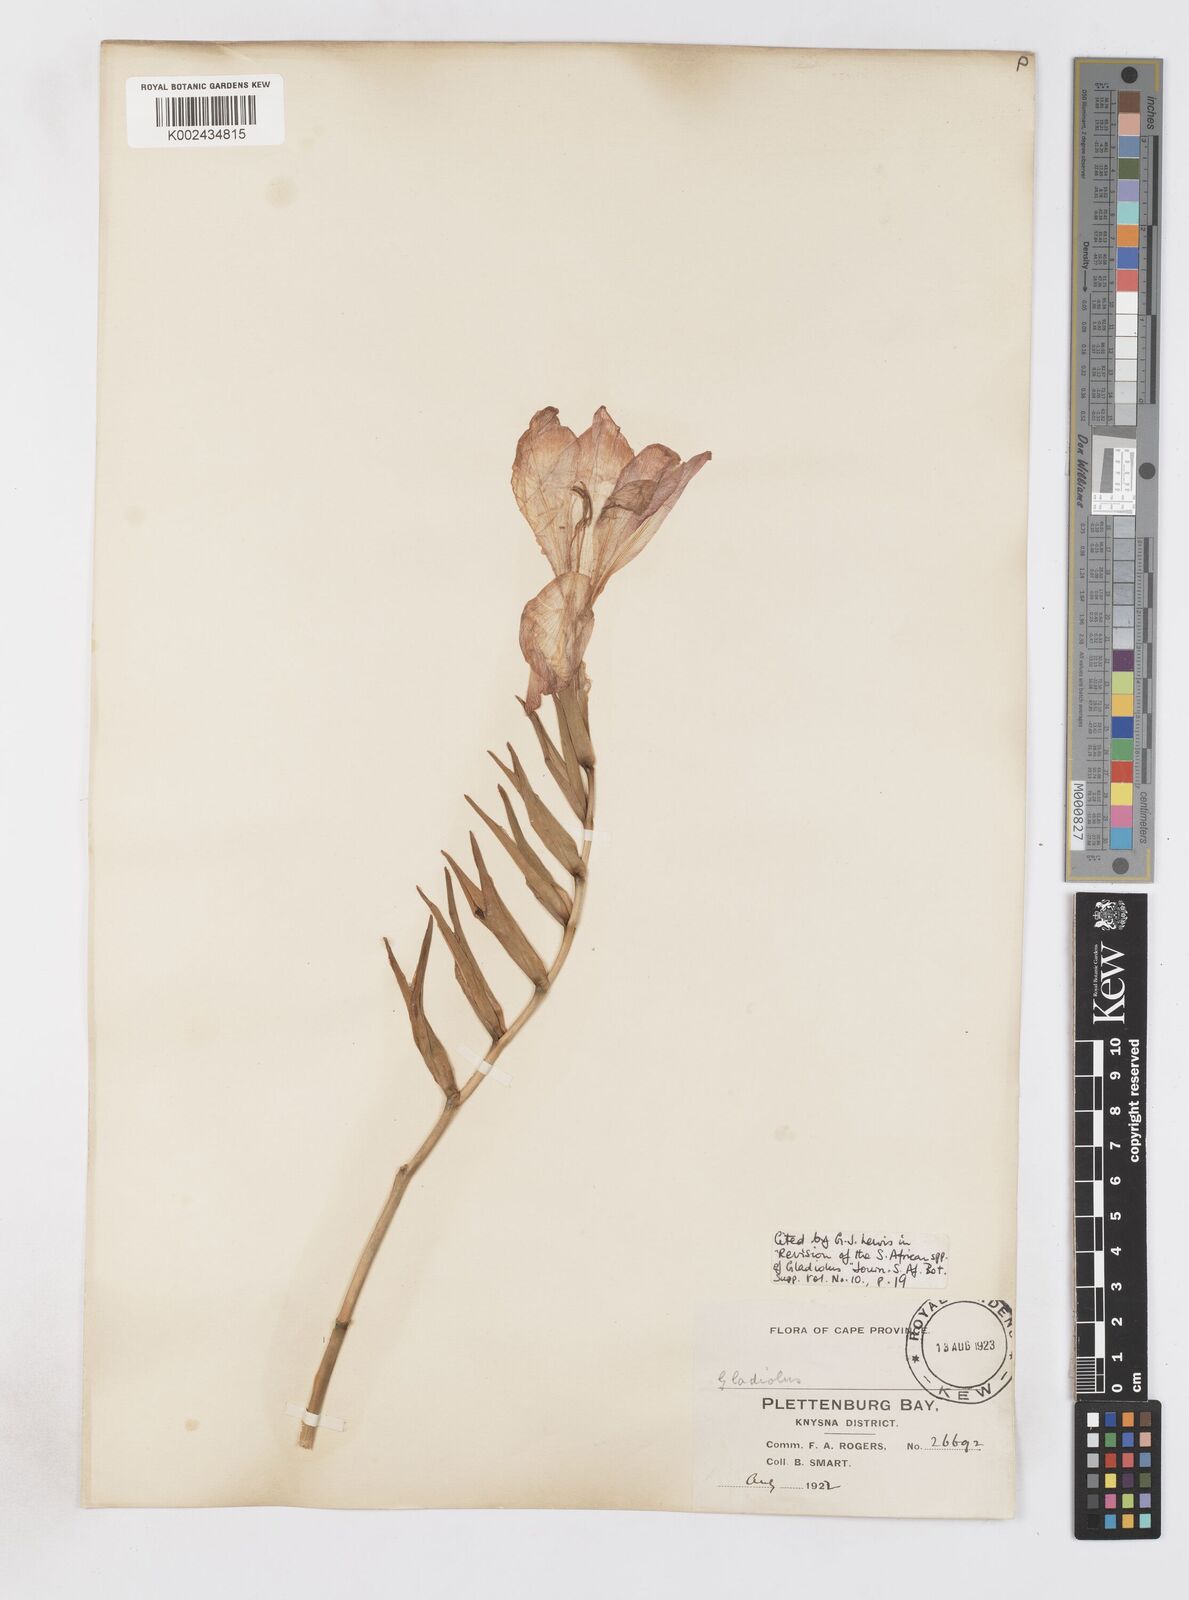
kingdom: Plantae
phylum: Tracheophyta
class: Liliopsida
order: Asparagales
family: Iridaceae
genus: Gladiolus
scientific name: Gladiolus sempervirens
